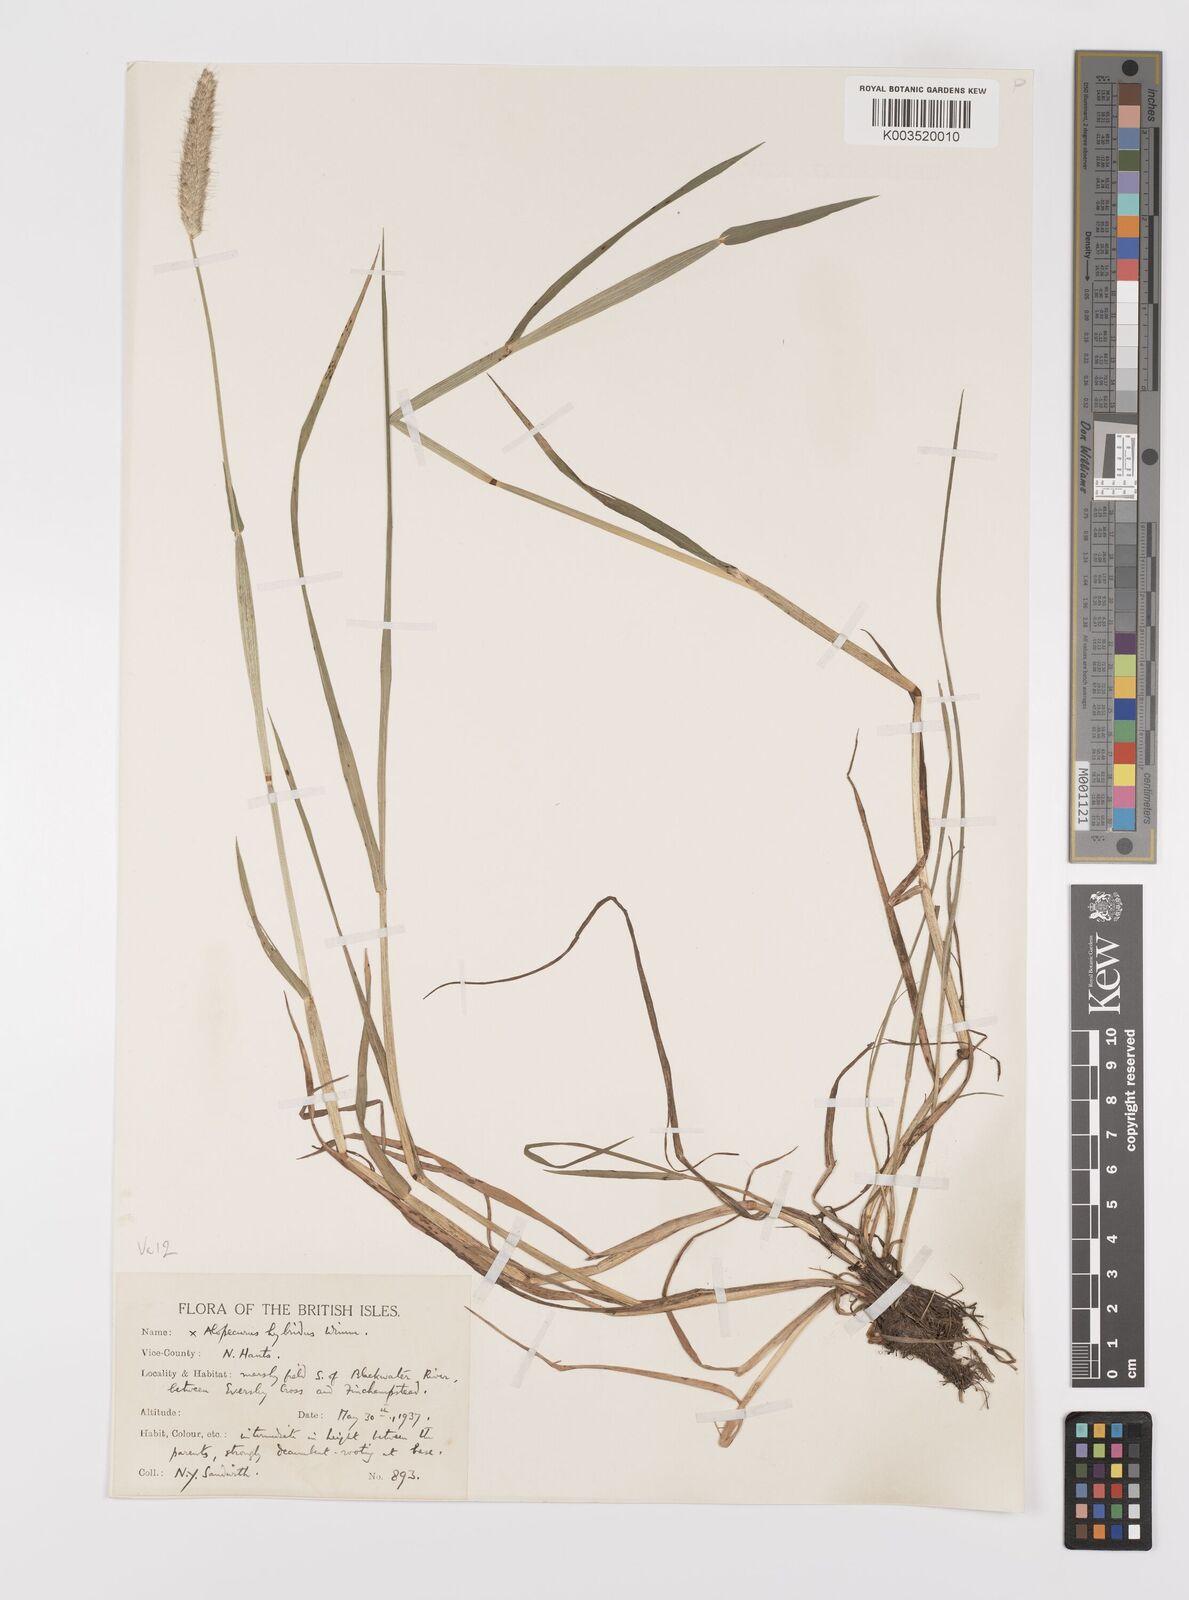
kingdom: Plantae
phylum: Tracheophyta
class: Liliopsida
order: Poales
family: Poaceae
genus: Alopecurus
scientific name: Alopecurus brachystylus
